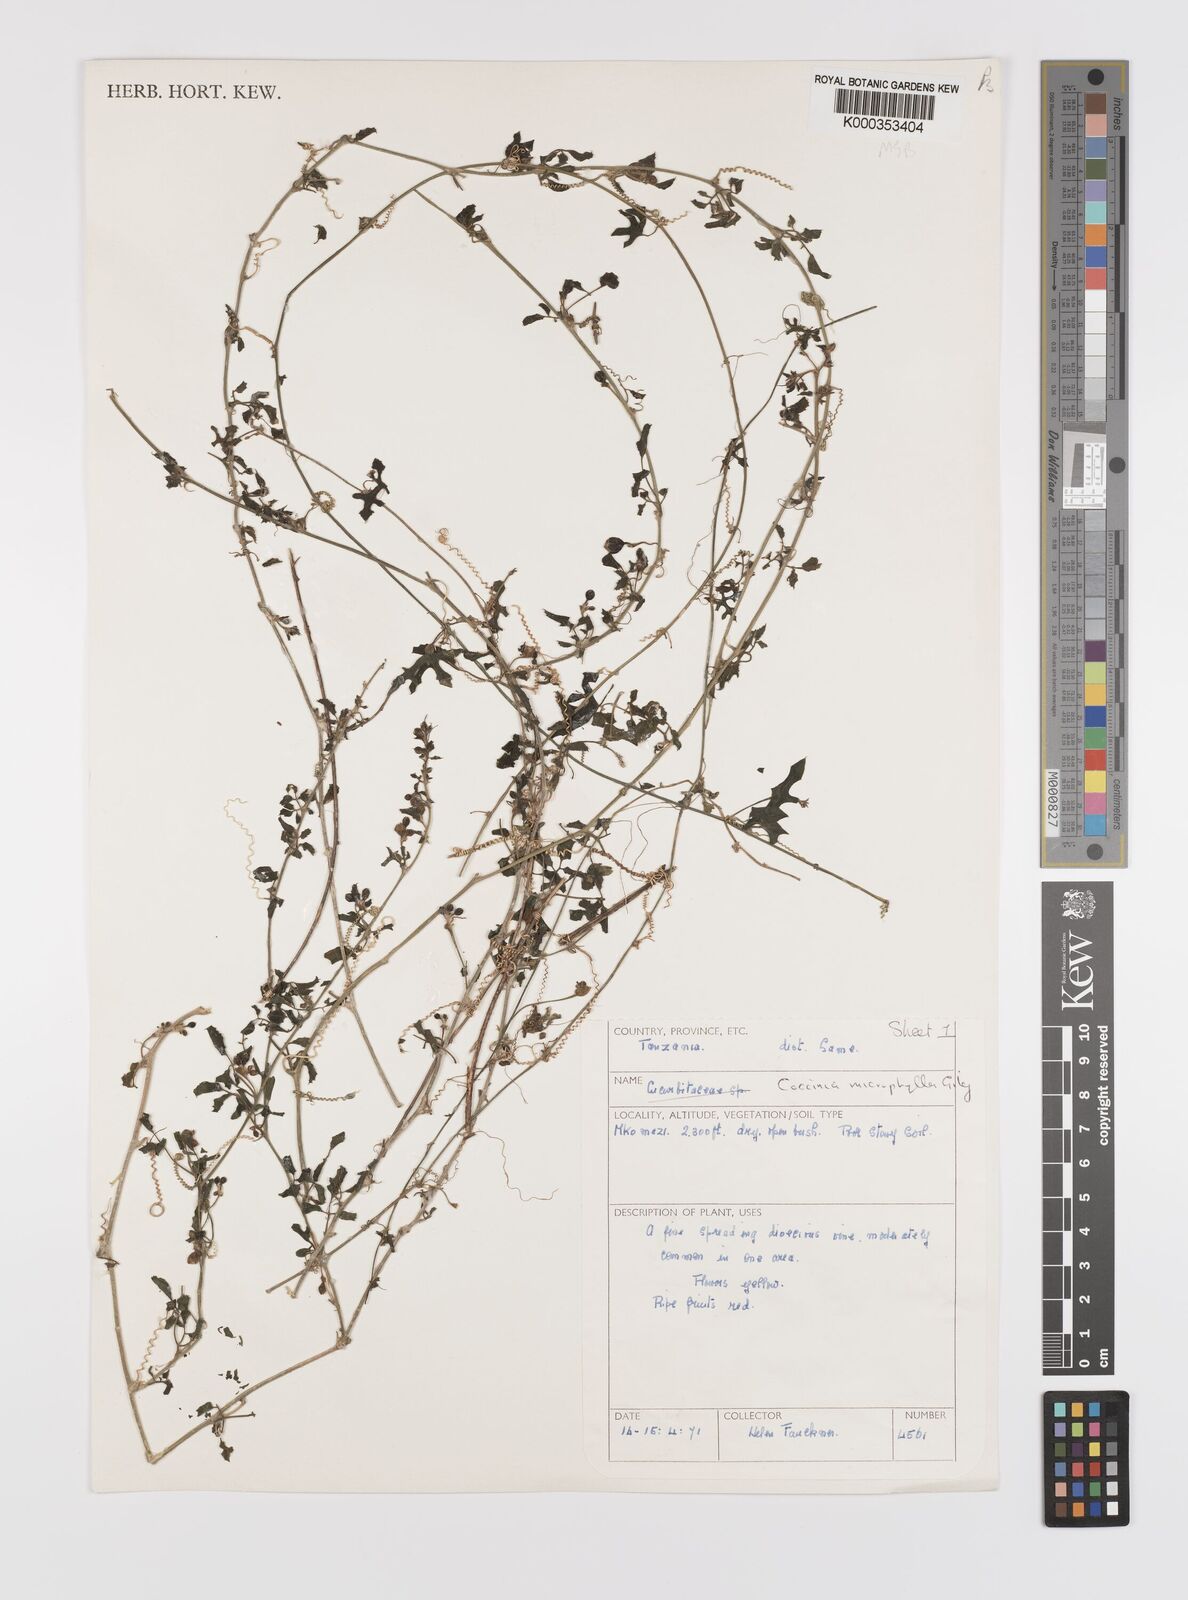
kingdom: Plantae
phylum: Tracheophyta
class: Magnoliopsida
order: Cucurbitales
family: Cucurbitaceae
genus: Coccinia
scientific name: Coccinia microphylla
